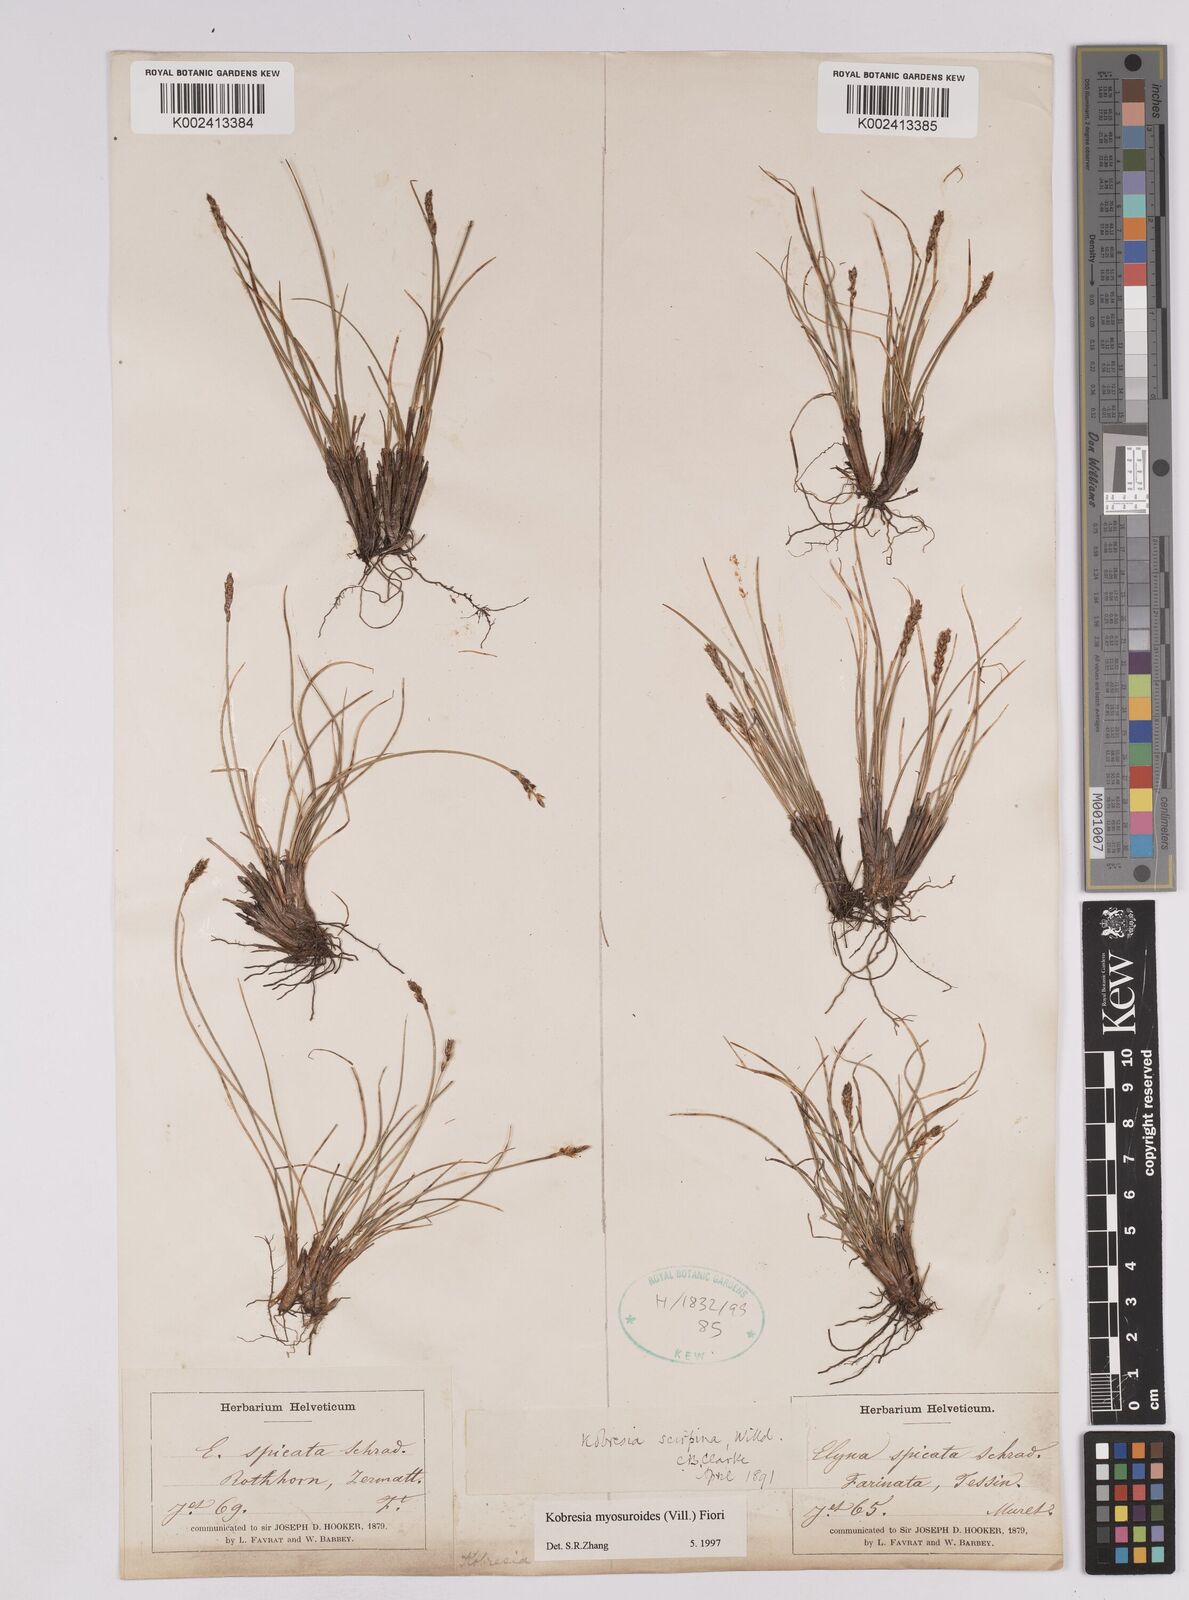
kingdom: Plantae
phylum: Tracheophyta
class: Liliopsida
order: Poales
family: Cyperaceae
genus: Carex
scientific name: Carex myosuroides
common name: Bellard's bog sedge
